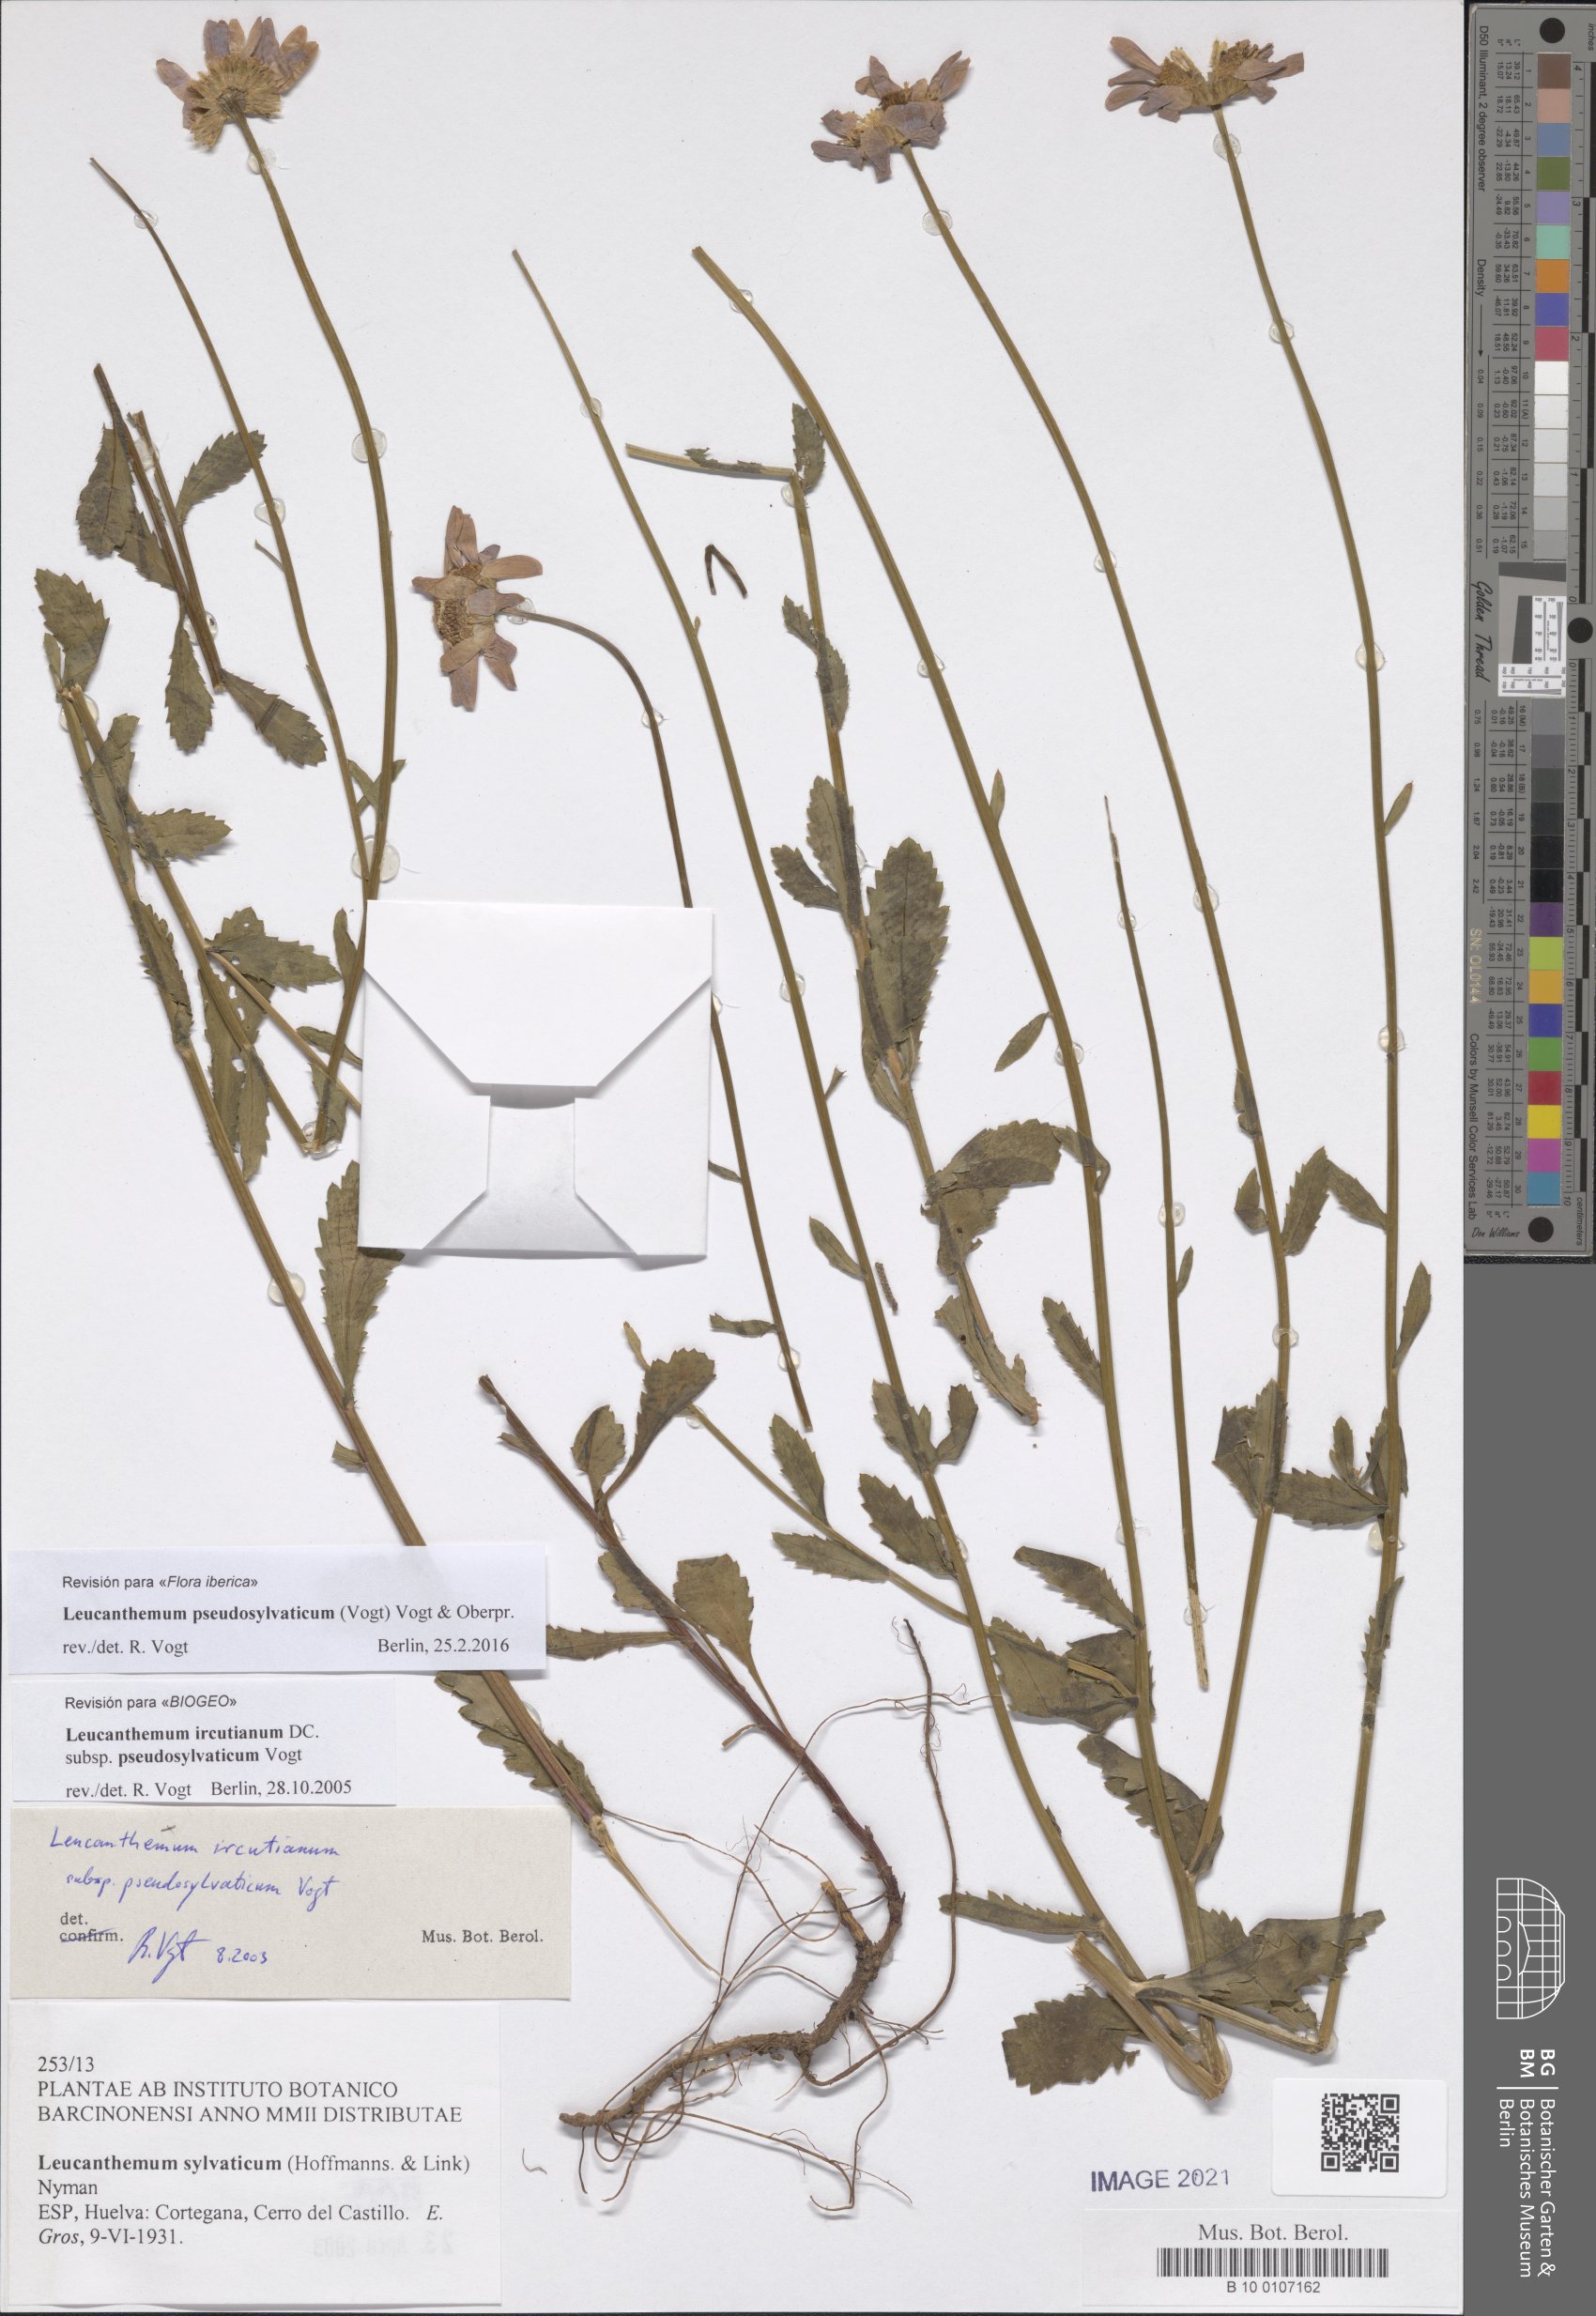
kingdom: Plantae
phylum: Tracheophyta
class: Magnoliopsida
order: Asterales
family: Asteraceae
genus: Leucanthemum
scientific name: Leucanthemum pseudosylvaticum
